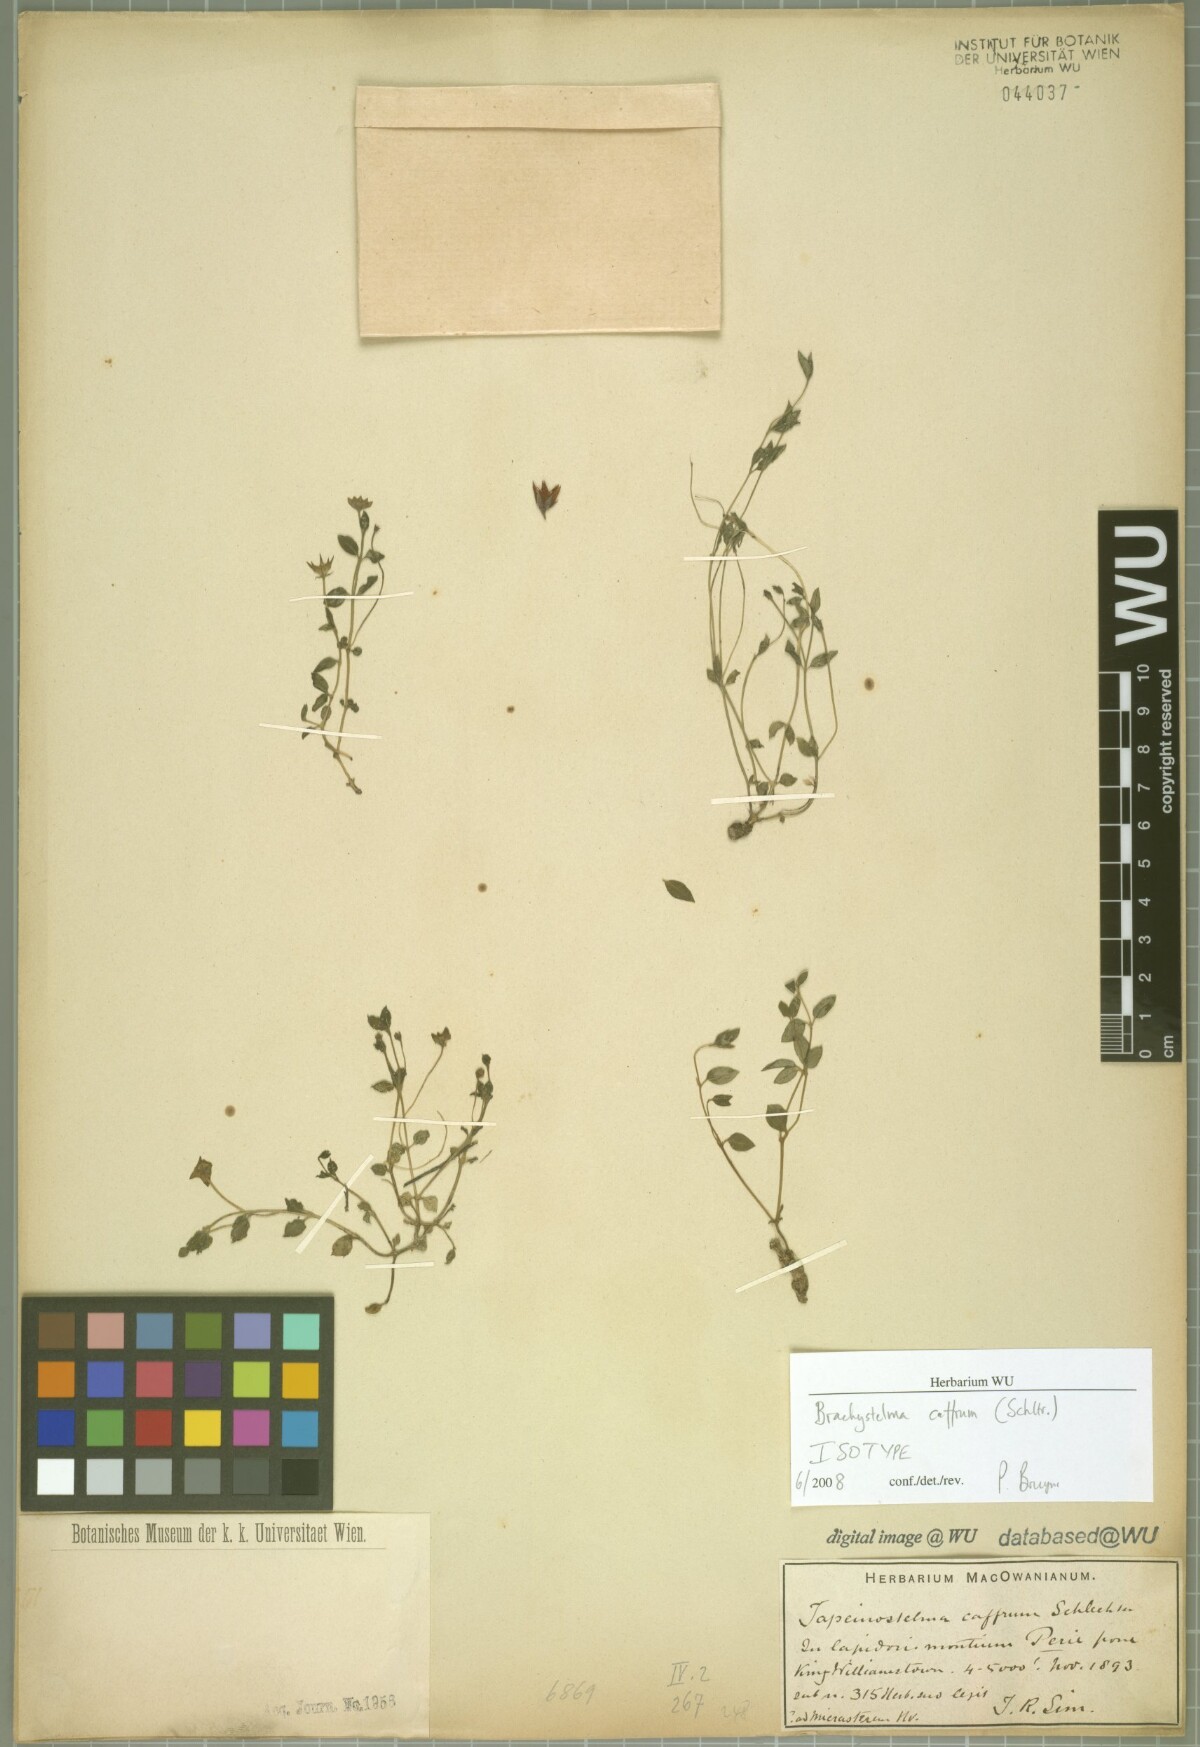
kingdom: Plantae
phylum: Tracheophyta
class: Magnoliopsida
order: Gentianales
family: Apocynaceae
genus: Ceropegia
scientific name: Ceropegia caffra
